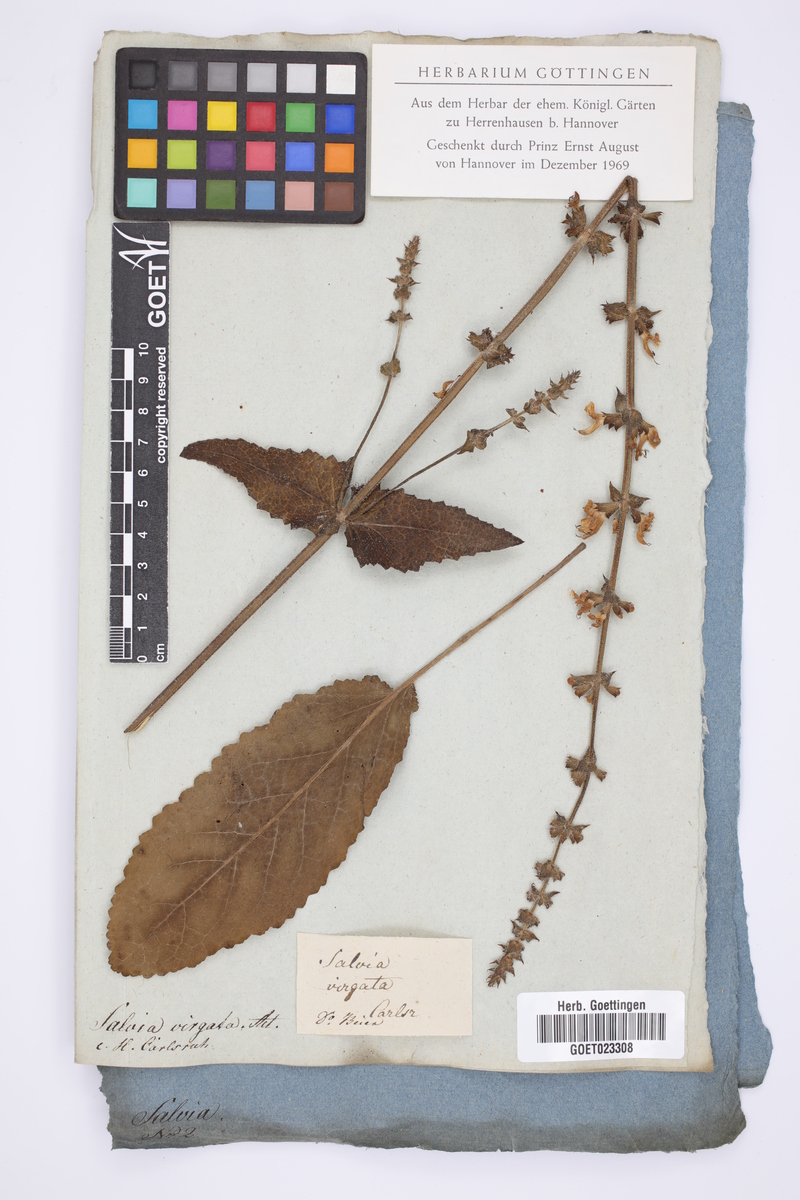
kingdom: Plantae
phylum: Tracheophyta
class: Magnoliopsida
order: Lamiales
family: Lamiaceae
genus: Salvia
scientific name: Salvia virgata
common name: Wand sage
